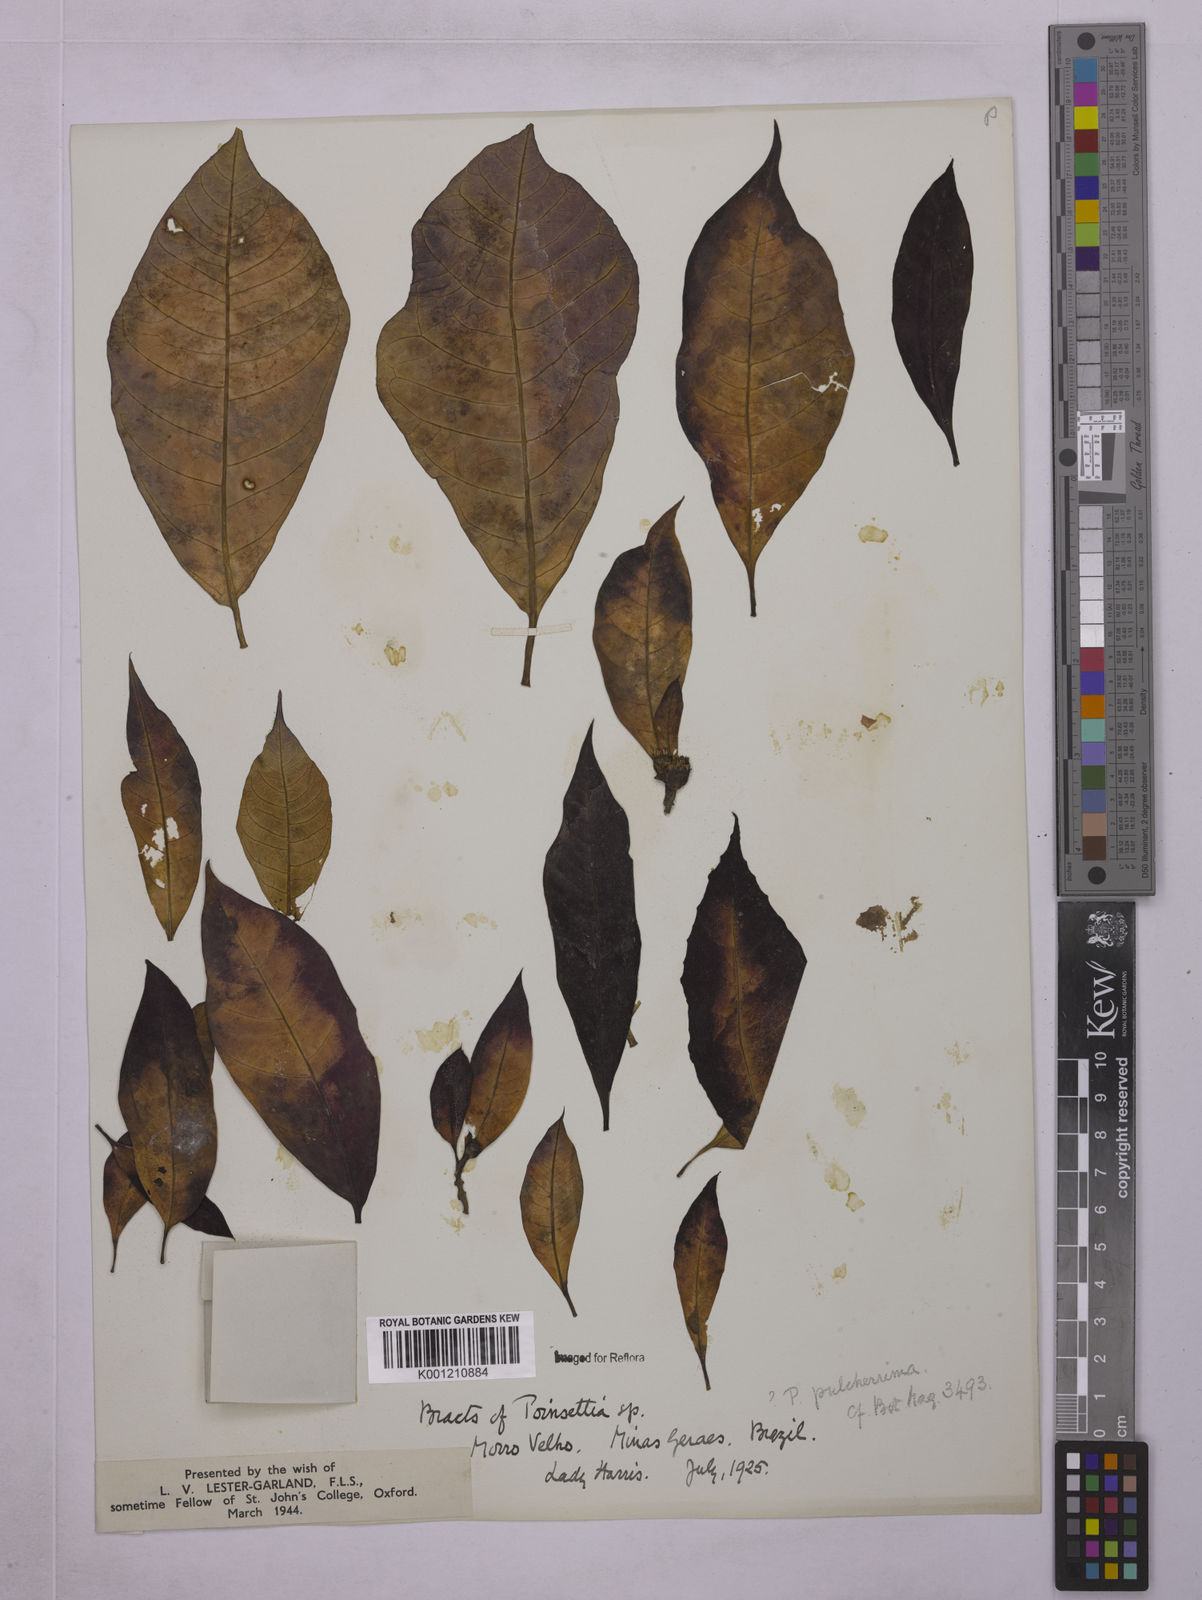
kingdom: Plantae
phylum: Tracheophyta
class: Magnoliopsida
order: Malpighiales
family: Euphorbiaceae
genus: Euphorbia
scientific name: Euphorbia
